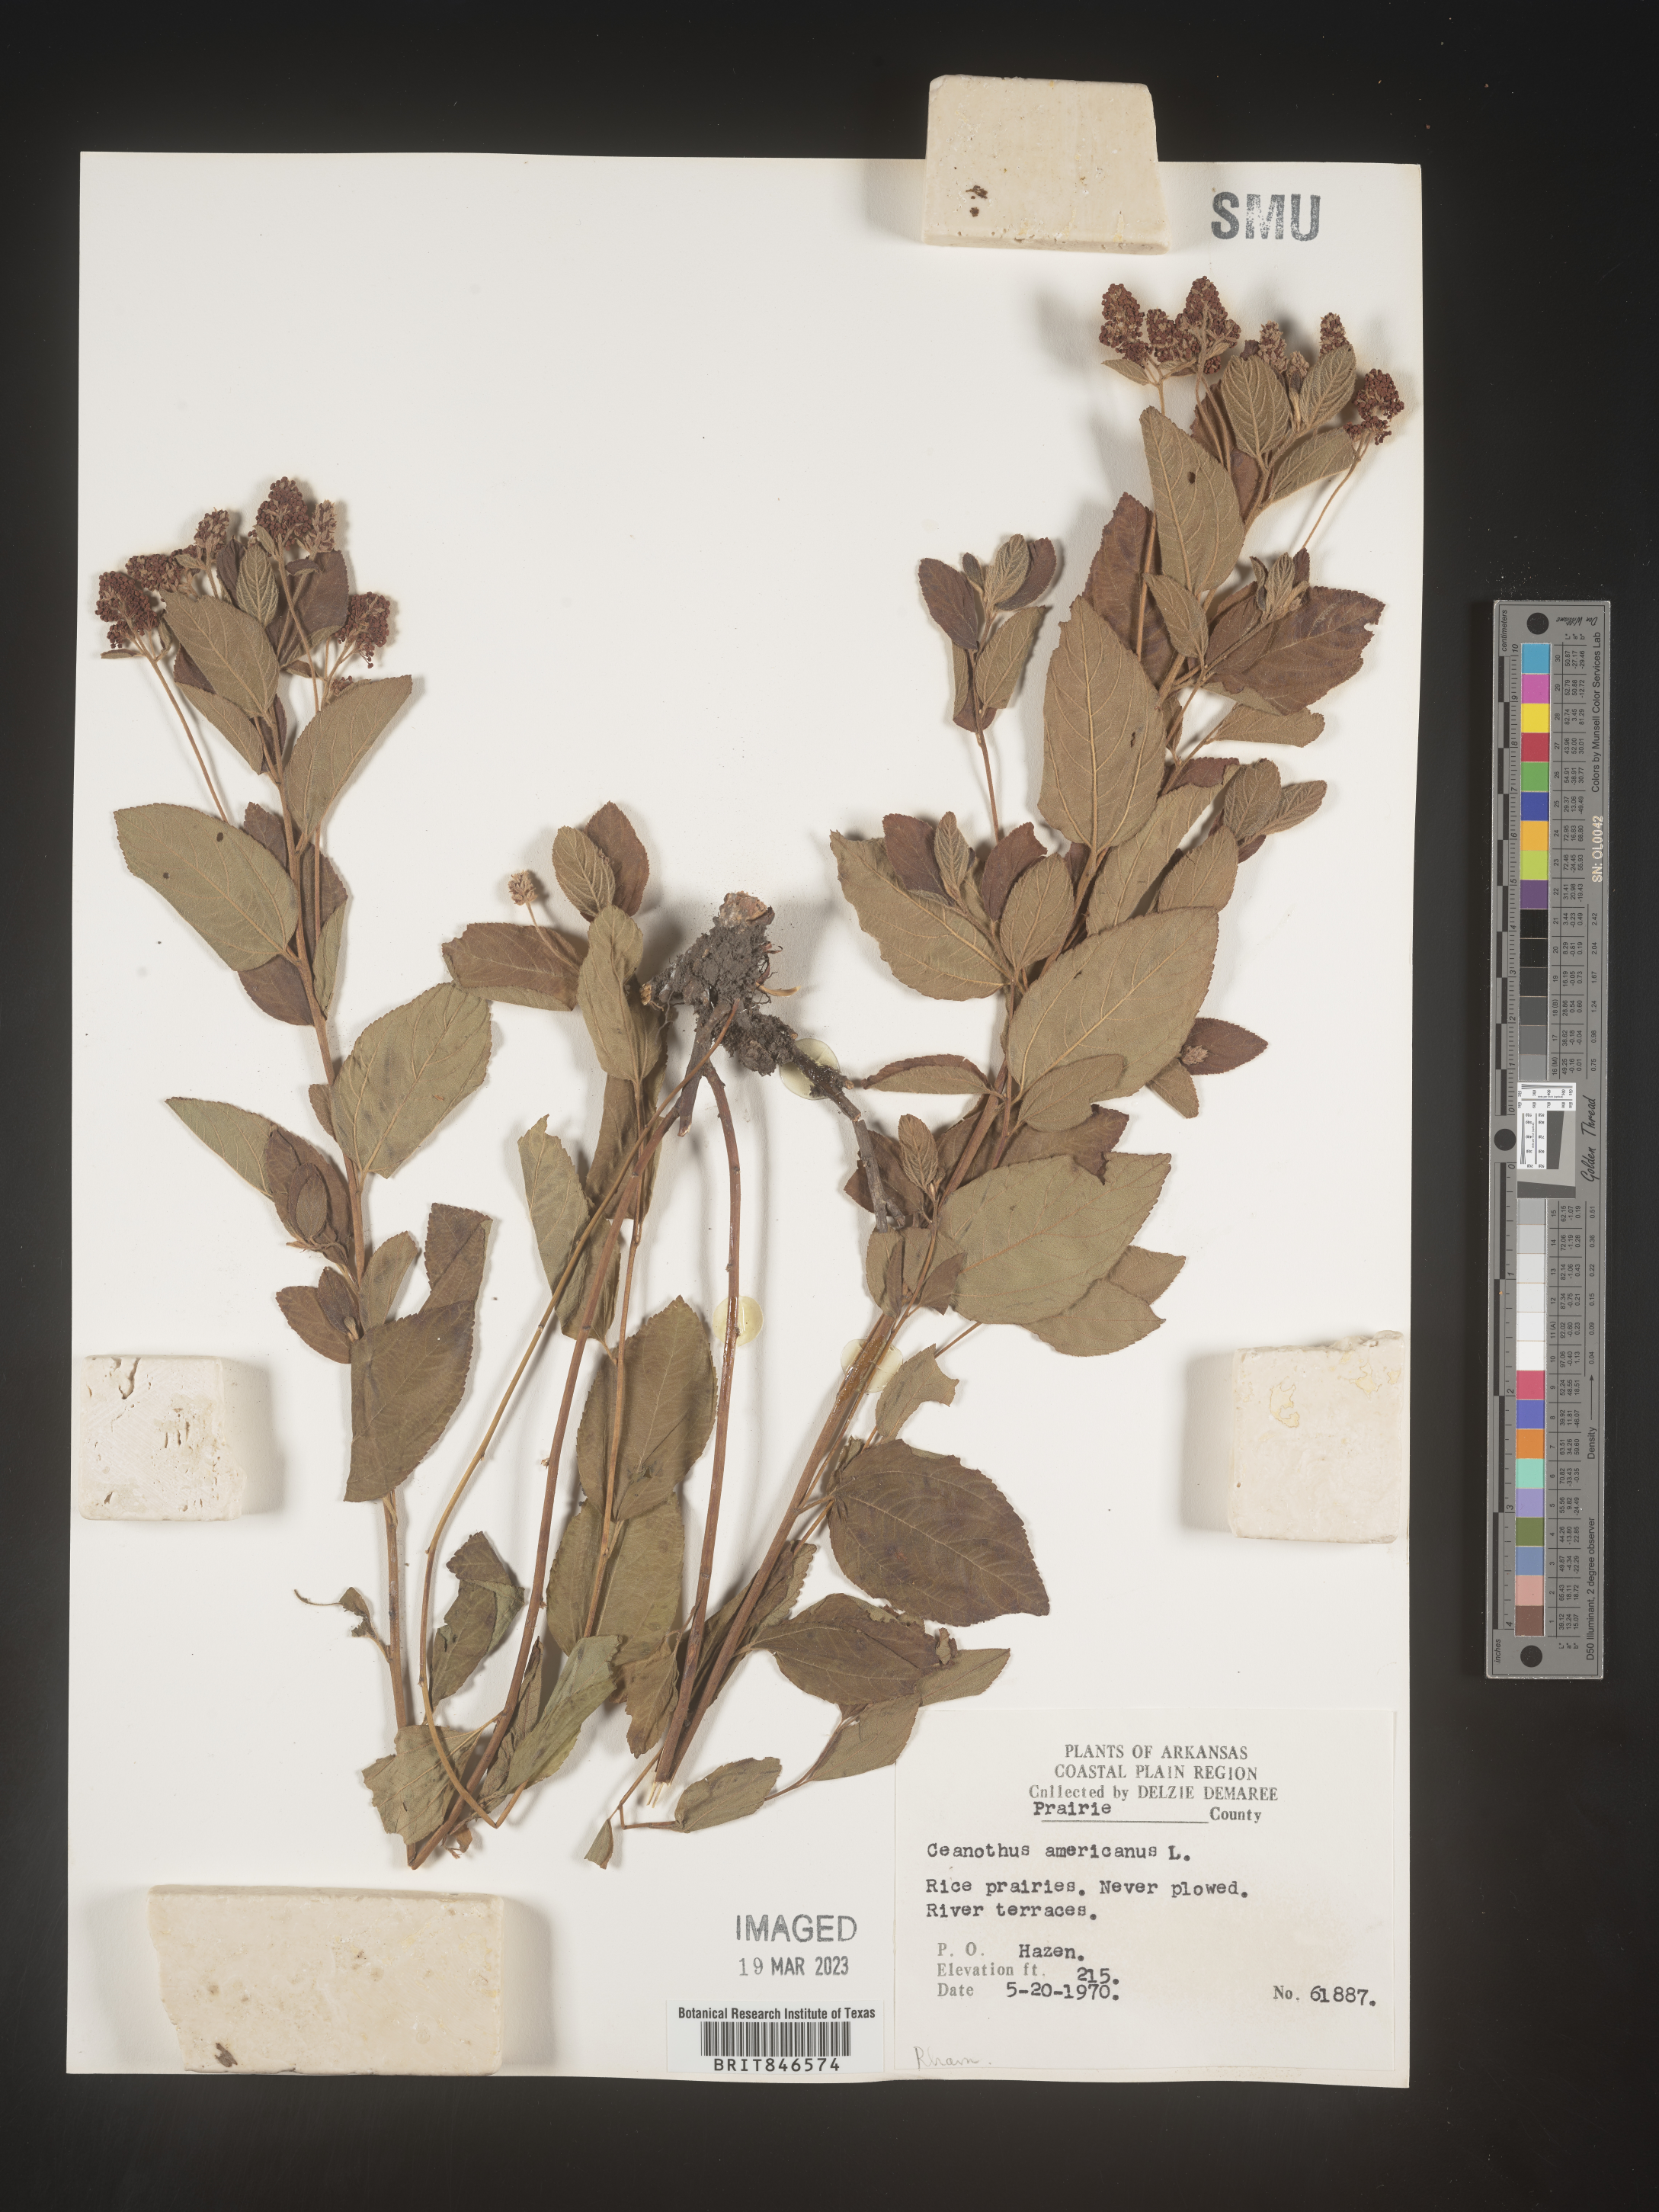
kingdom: Plantae
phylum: Tracheophyta
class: Magnoliopsida
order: Rosales
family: Rhamnaceae
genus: Ceanothus
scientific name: Ceanothus americanus
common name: Redroot
